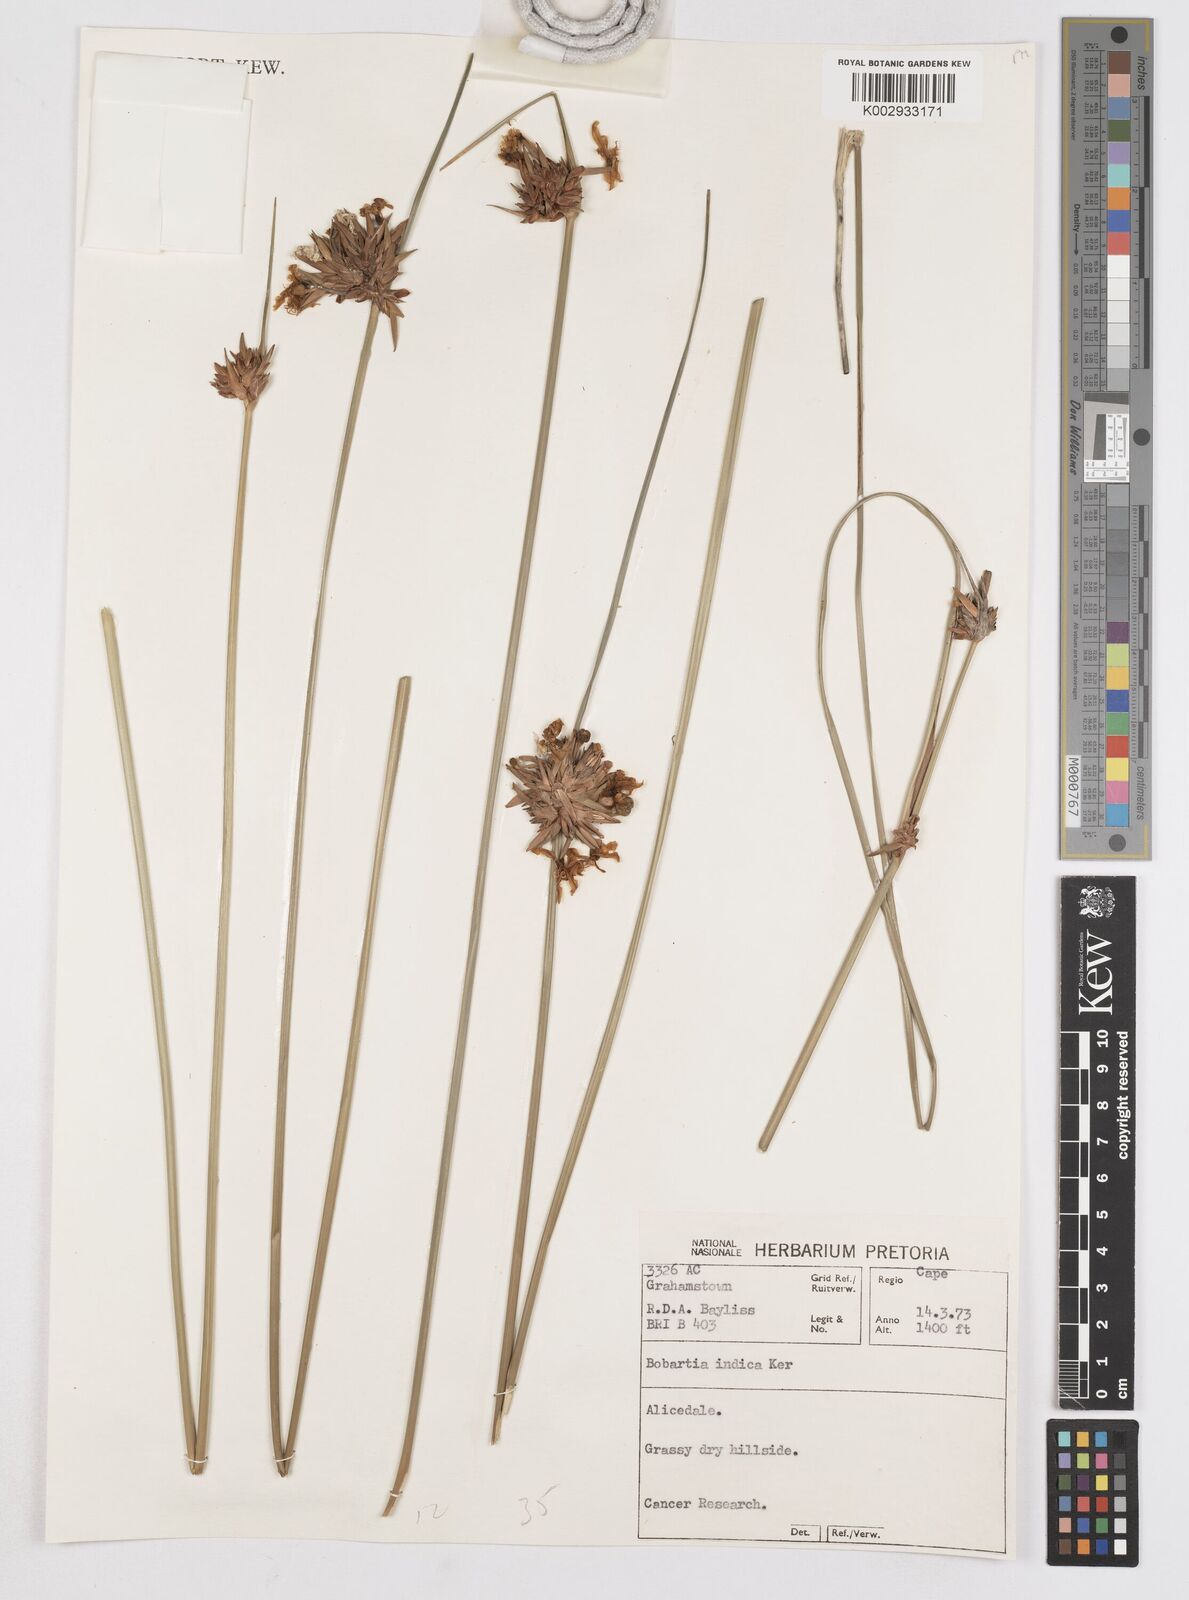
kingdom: Plantae
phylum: Tracheophyta
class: Liliopsida
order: Asparagales
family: Iridaceae
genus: Bobartia
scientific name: Bobartia indica
